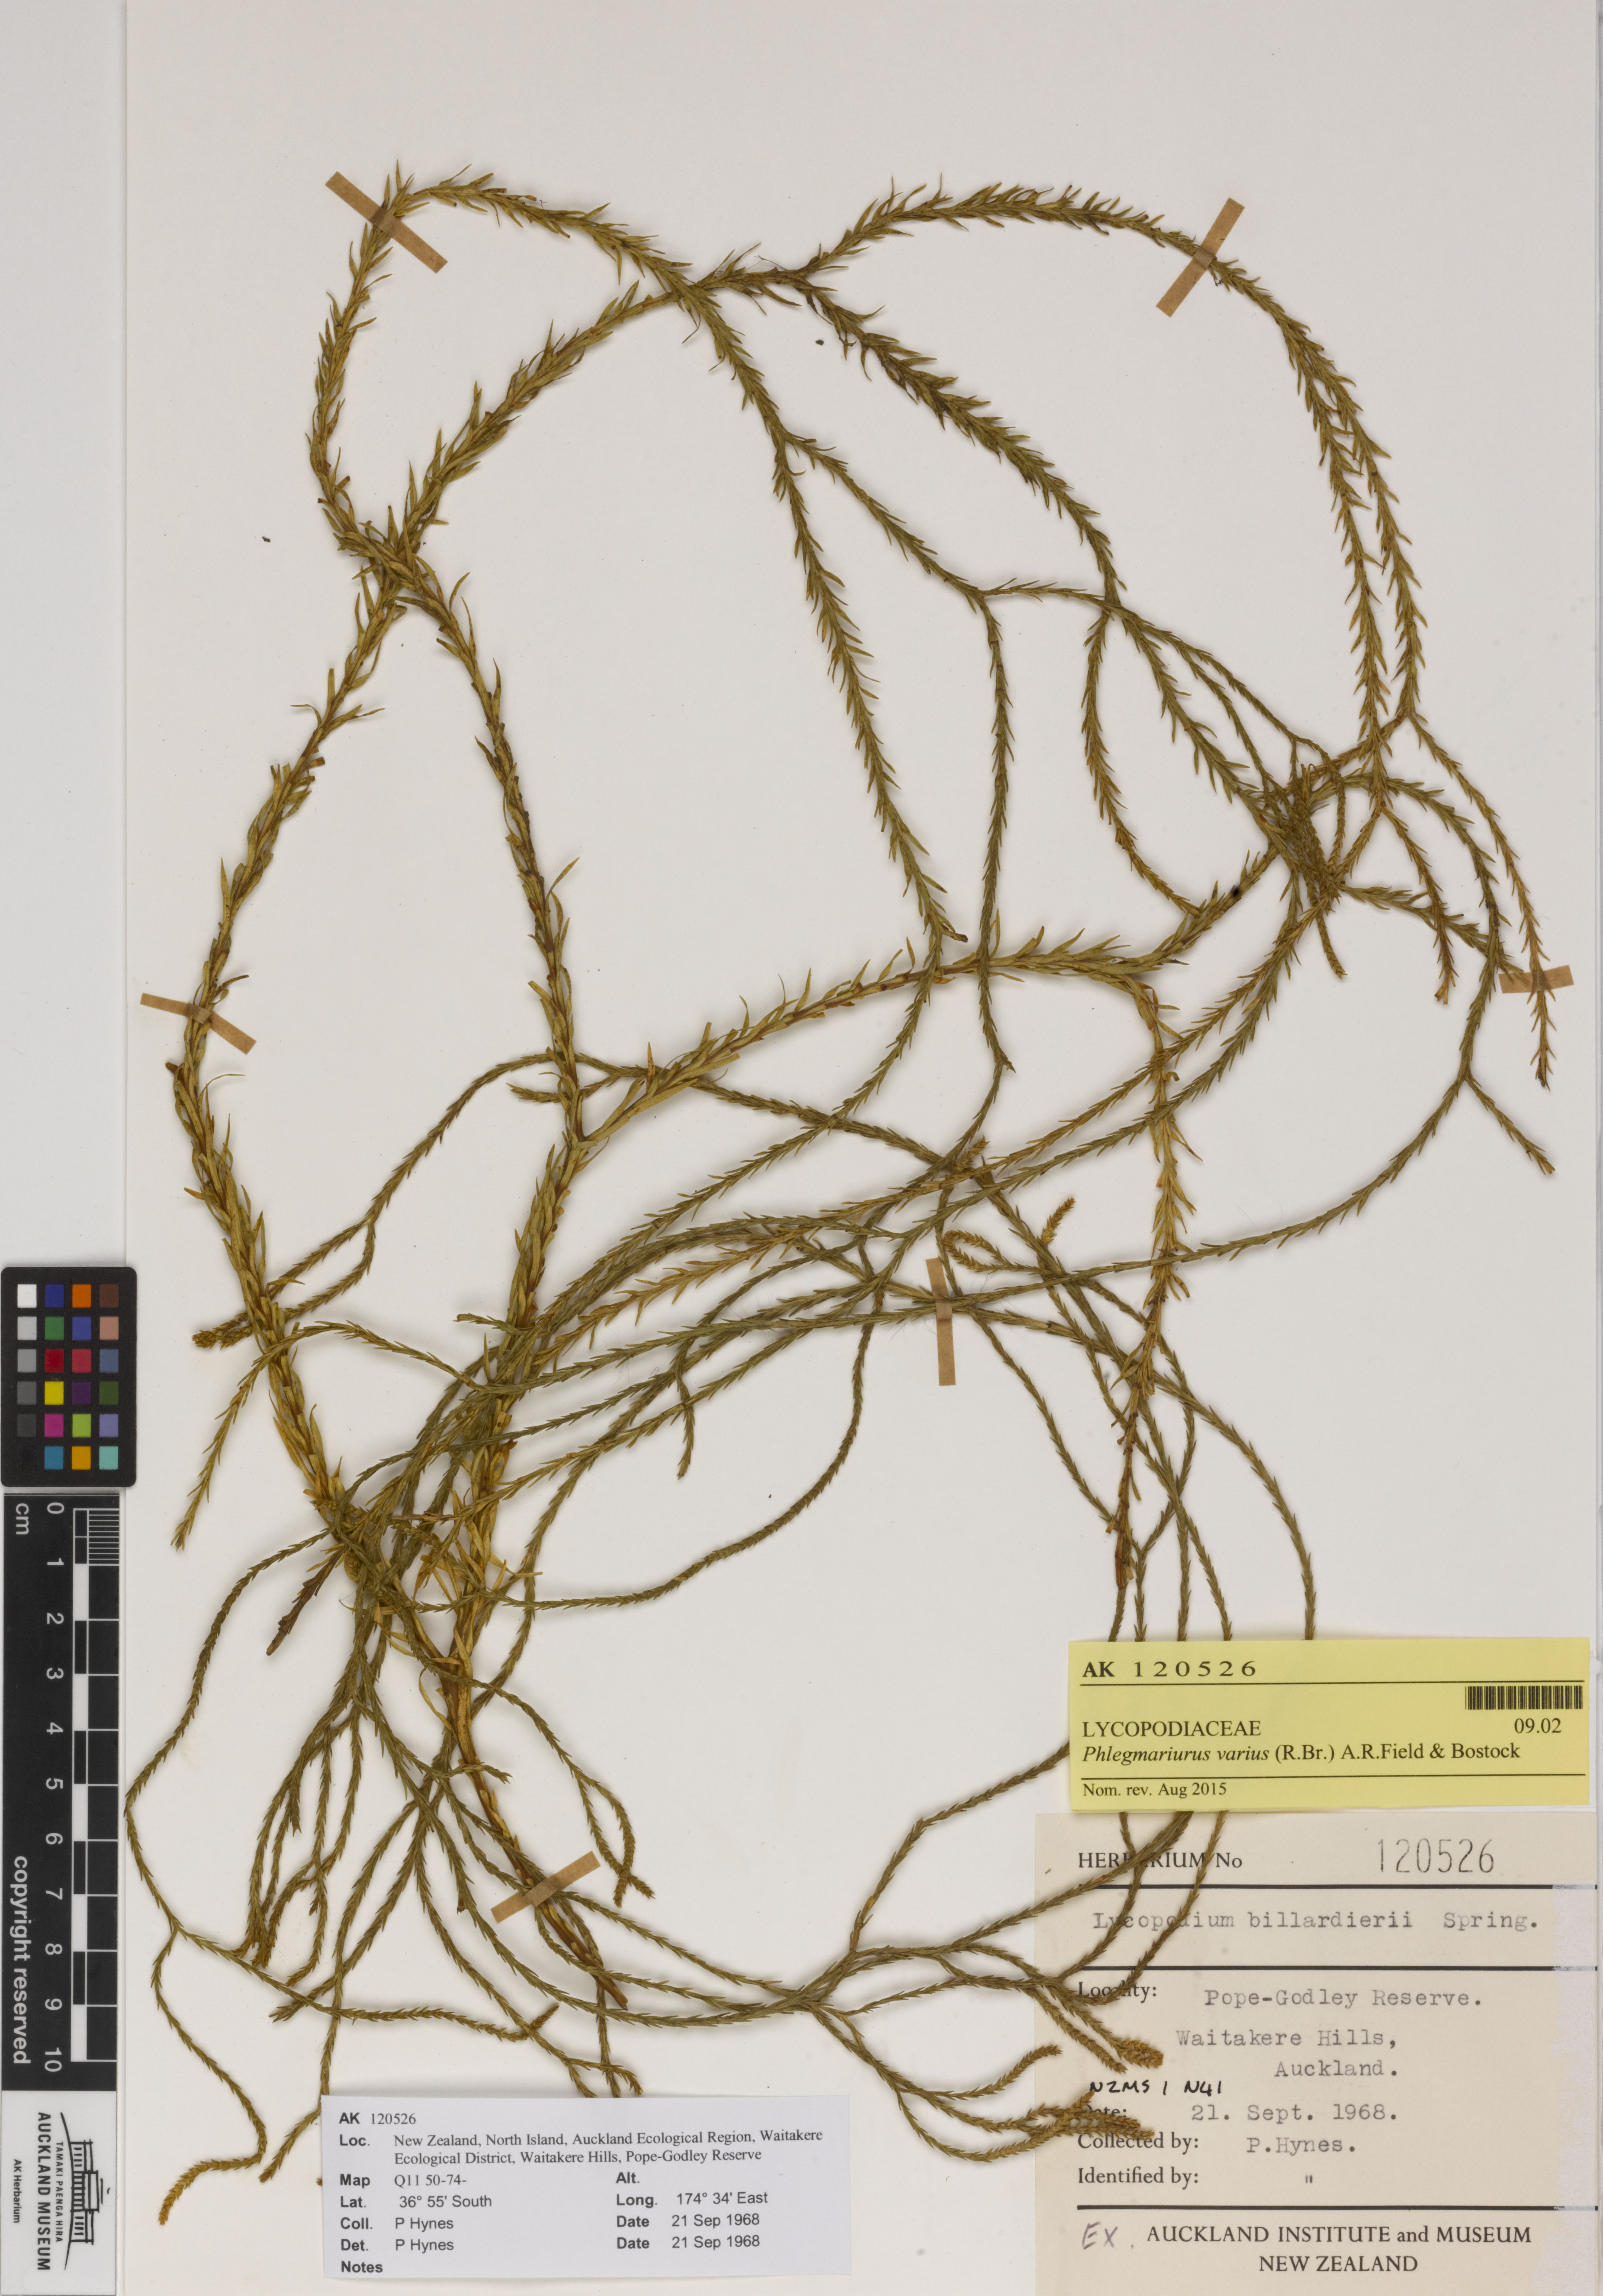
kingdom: Plantae
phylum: Tracheophyta
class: Lycopodiopsida
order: Lycopodiales
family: Lycopodiaceae
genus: Phlegmariurus
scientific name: Phlegmariurus billardierei
